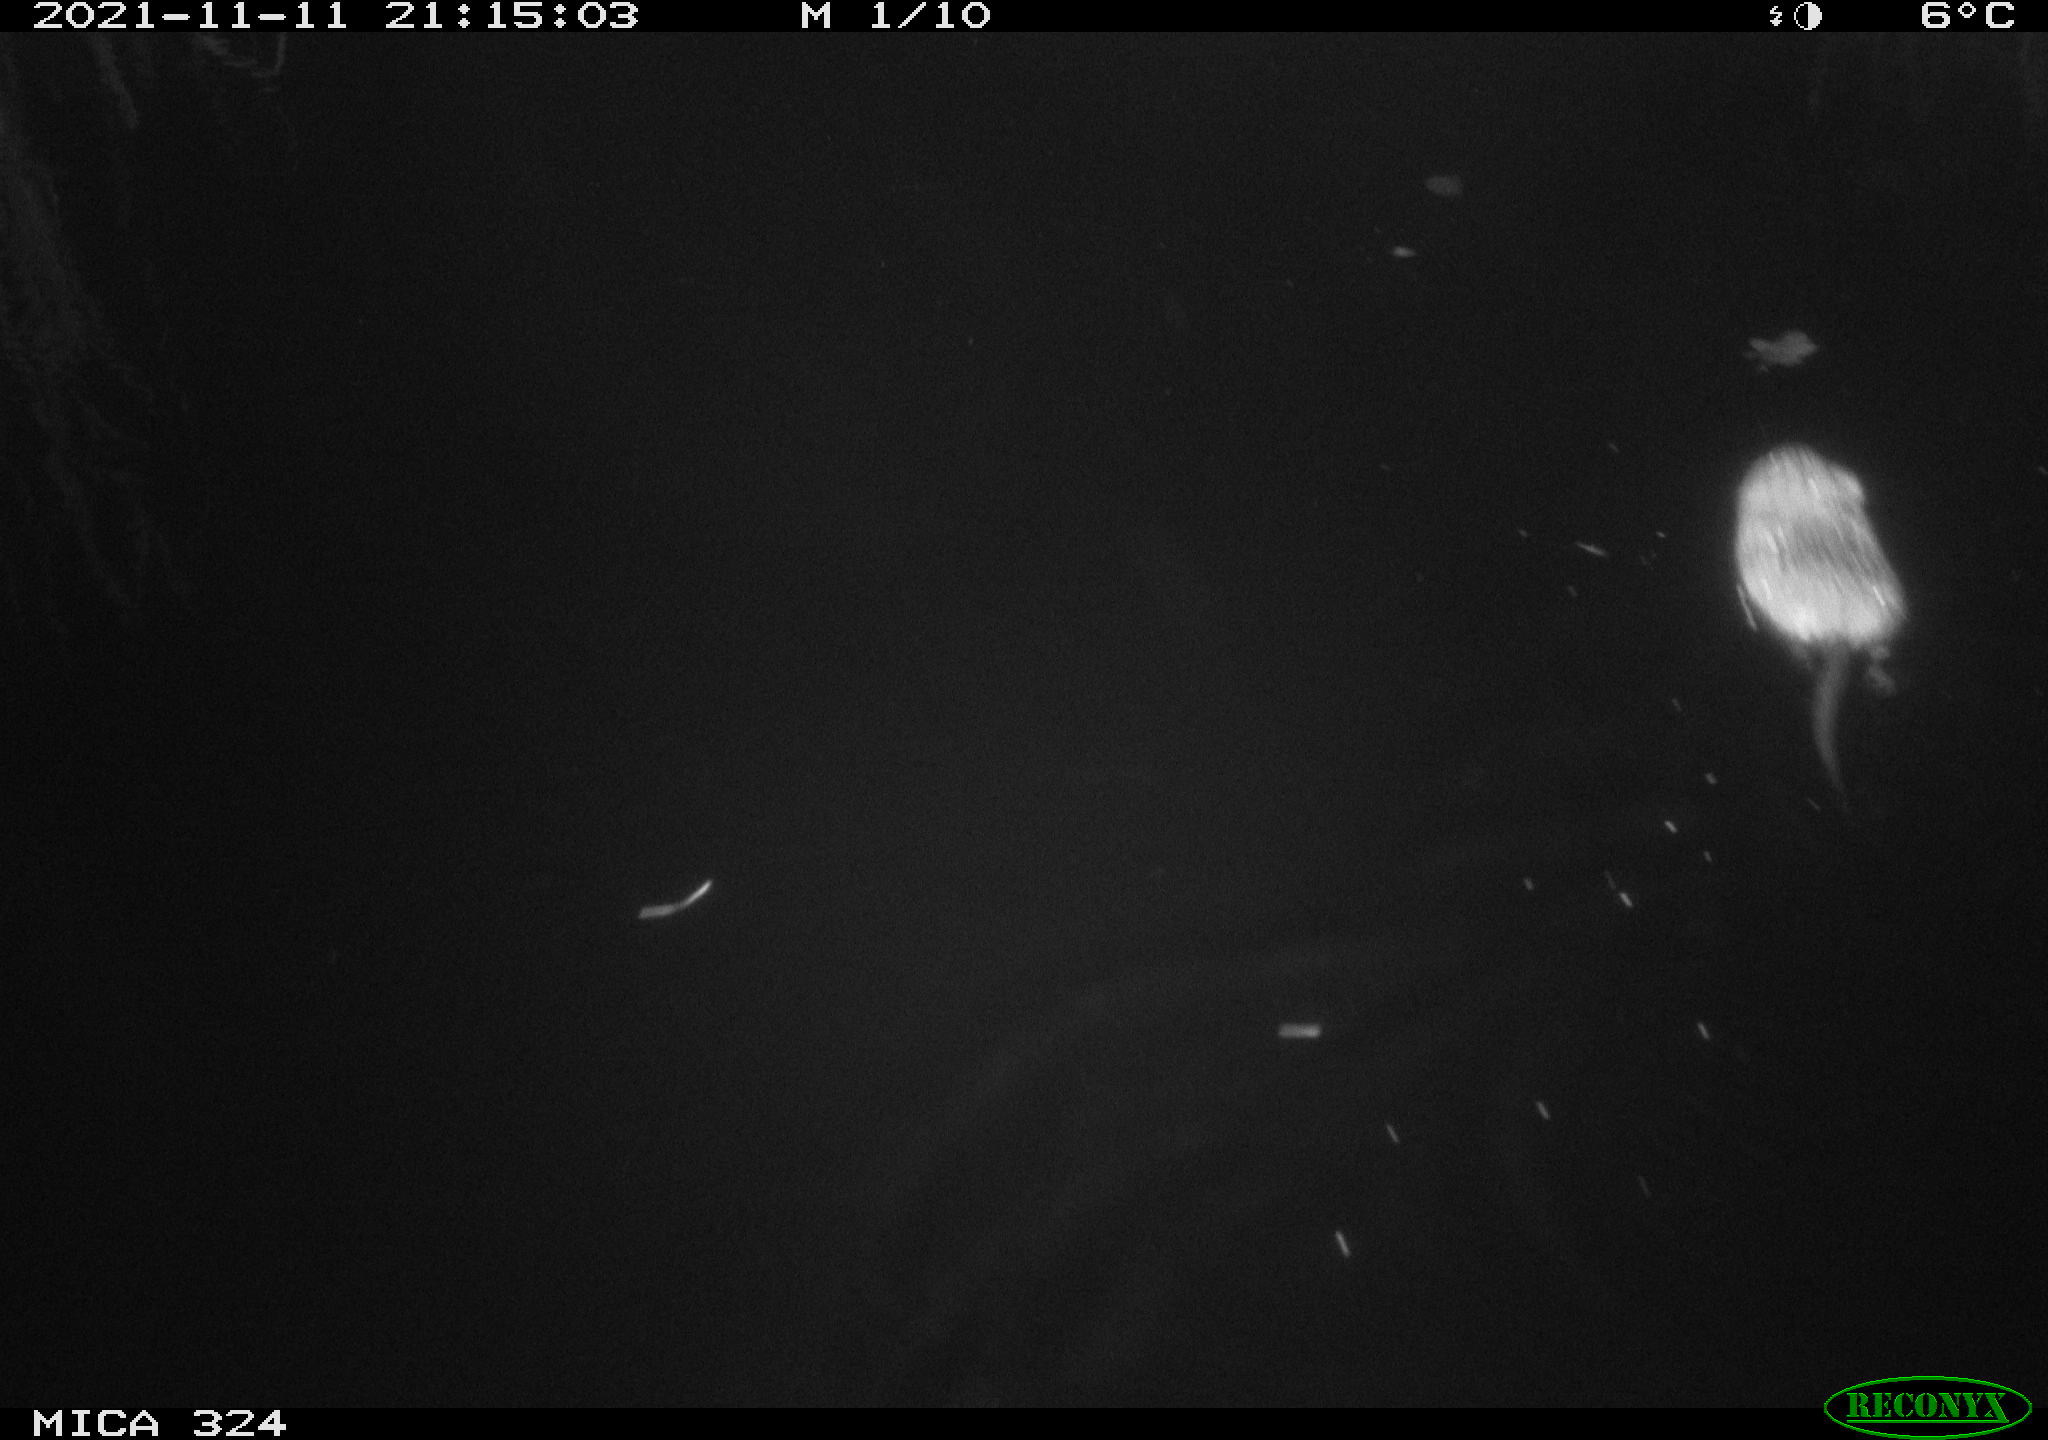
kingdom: Animalia
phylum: Chordata
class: Mammalia
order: Rodentia
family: Cricetidae
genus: Ondatra
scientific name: Ondatra zibethicus
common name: Muskrat
